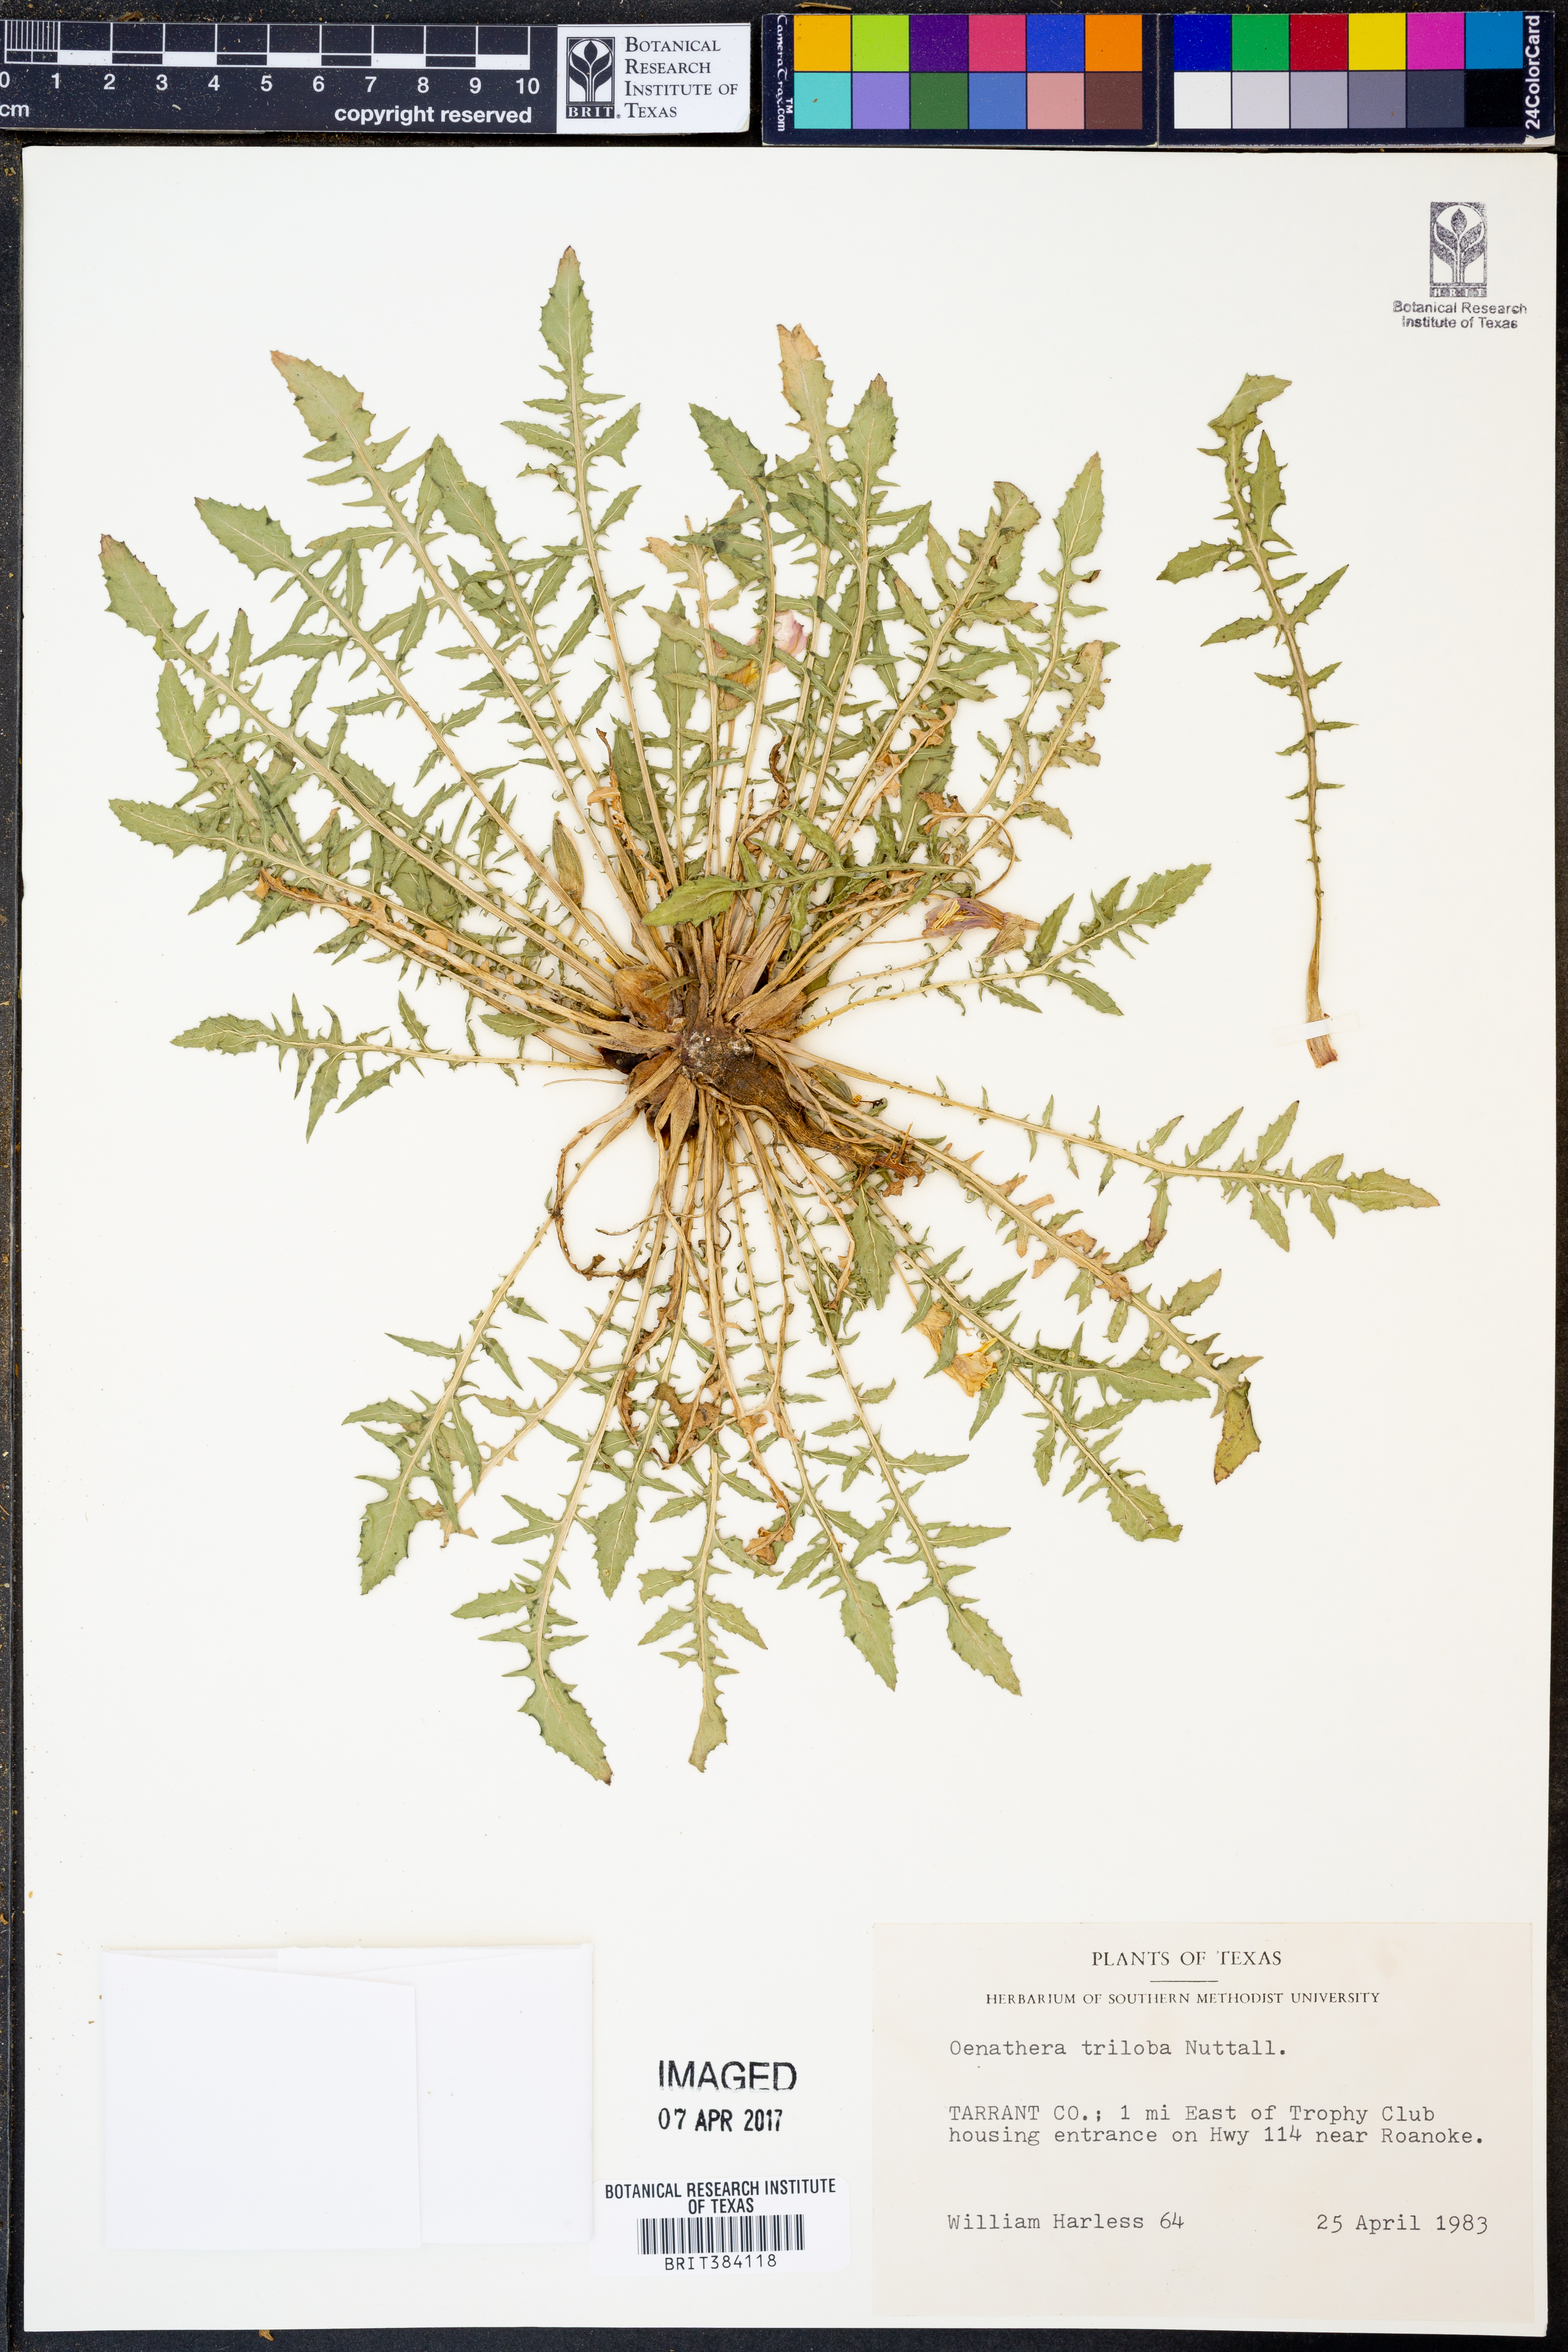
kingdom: Plantae
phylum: Tracheophyta
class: Magnoliopsida
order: Myrtales
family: Onagraceae
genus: Oenothera
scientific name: Oenothera triloba
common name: Sessile evening-primrose
